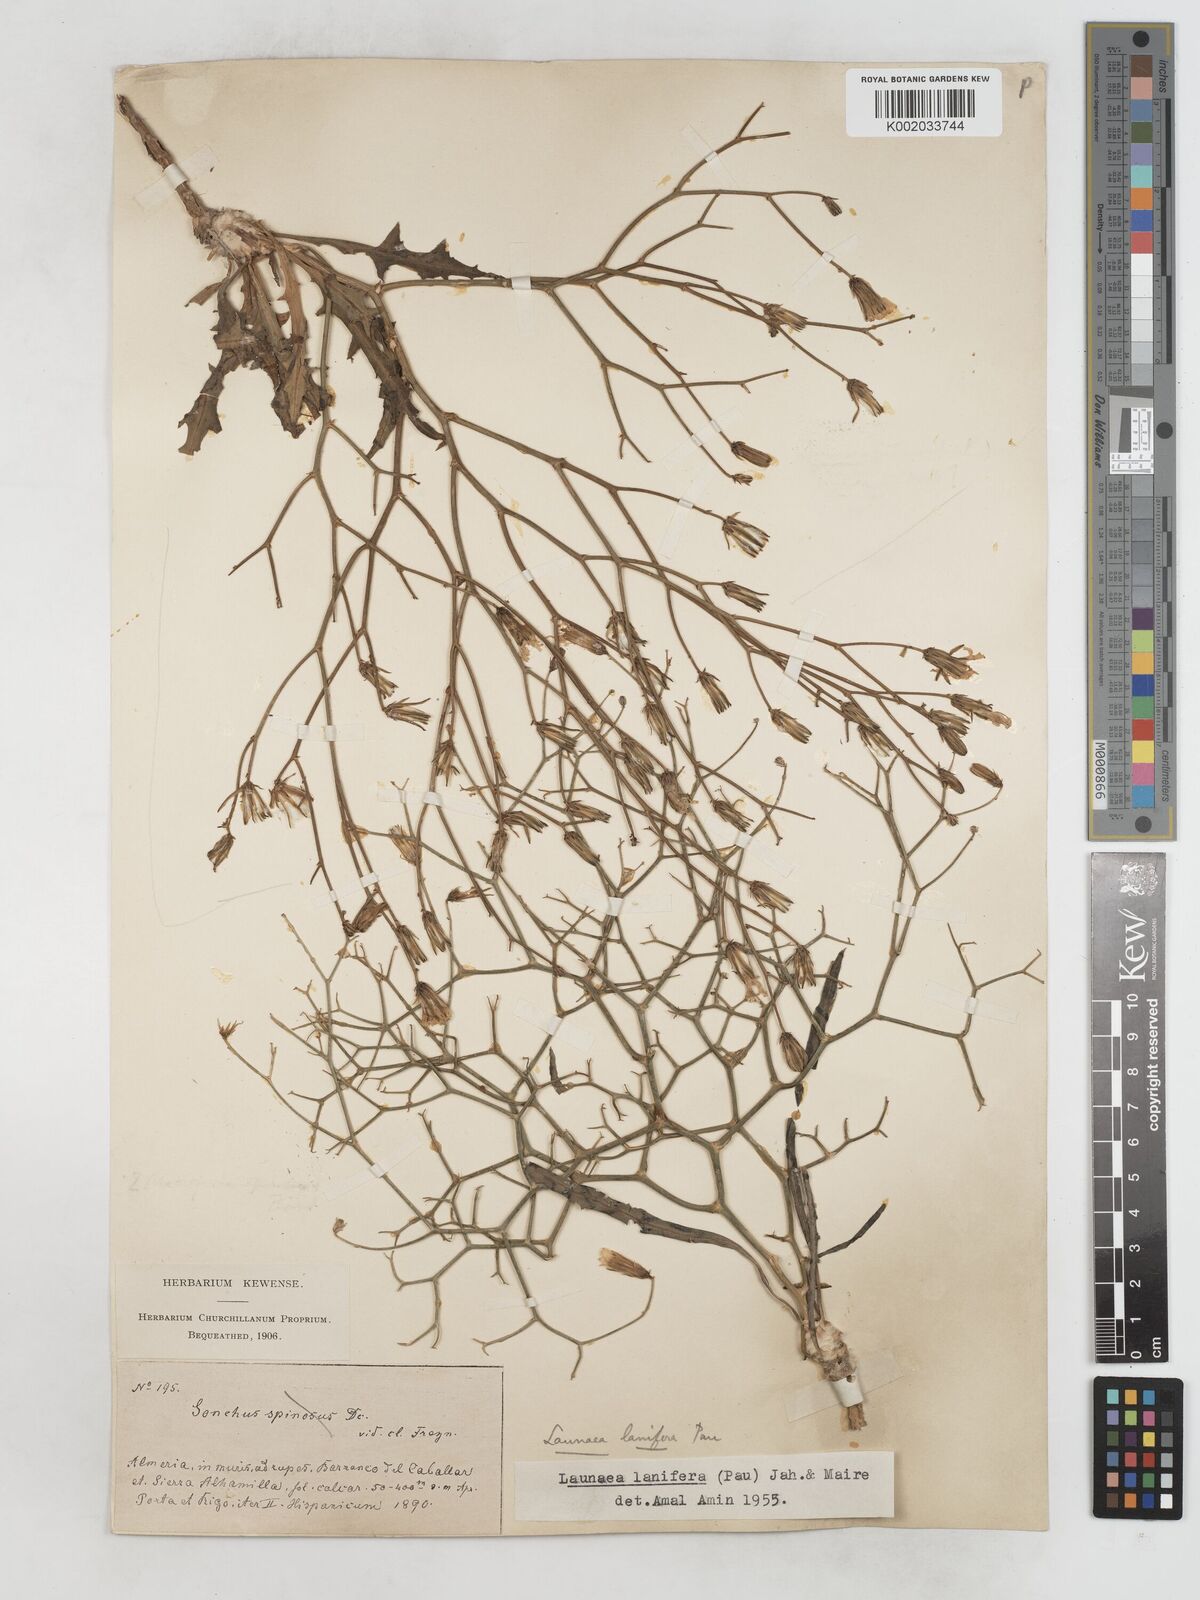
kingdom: Plantae
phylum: Tracheophyta
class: Magnoliopsida
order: Asterales
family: Asteraceae
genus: Launaea
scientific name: Launaea lanifera
